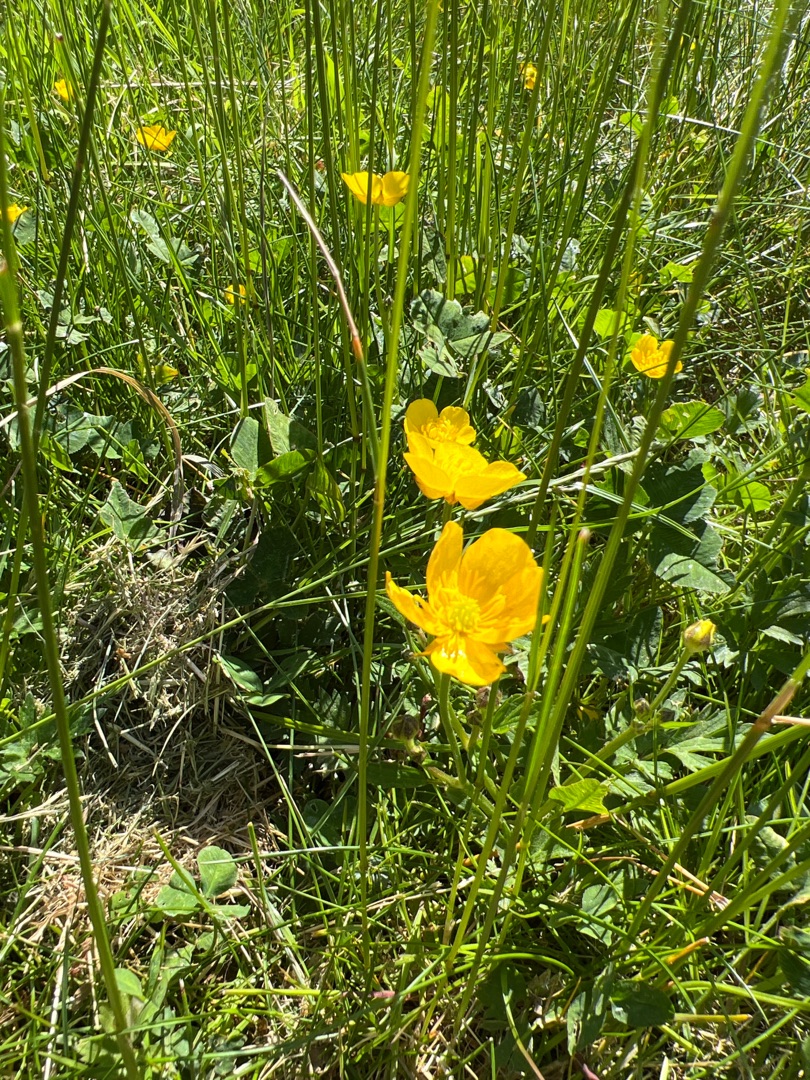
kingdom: Plantae
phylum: Tracheophyta
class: Magnoliopsida
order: Ranunculales
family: Ranunculaceae
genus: Ranunculus
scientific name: Ranunculus repens
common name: Lav ranunkel
